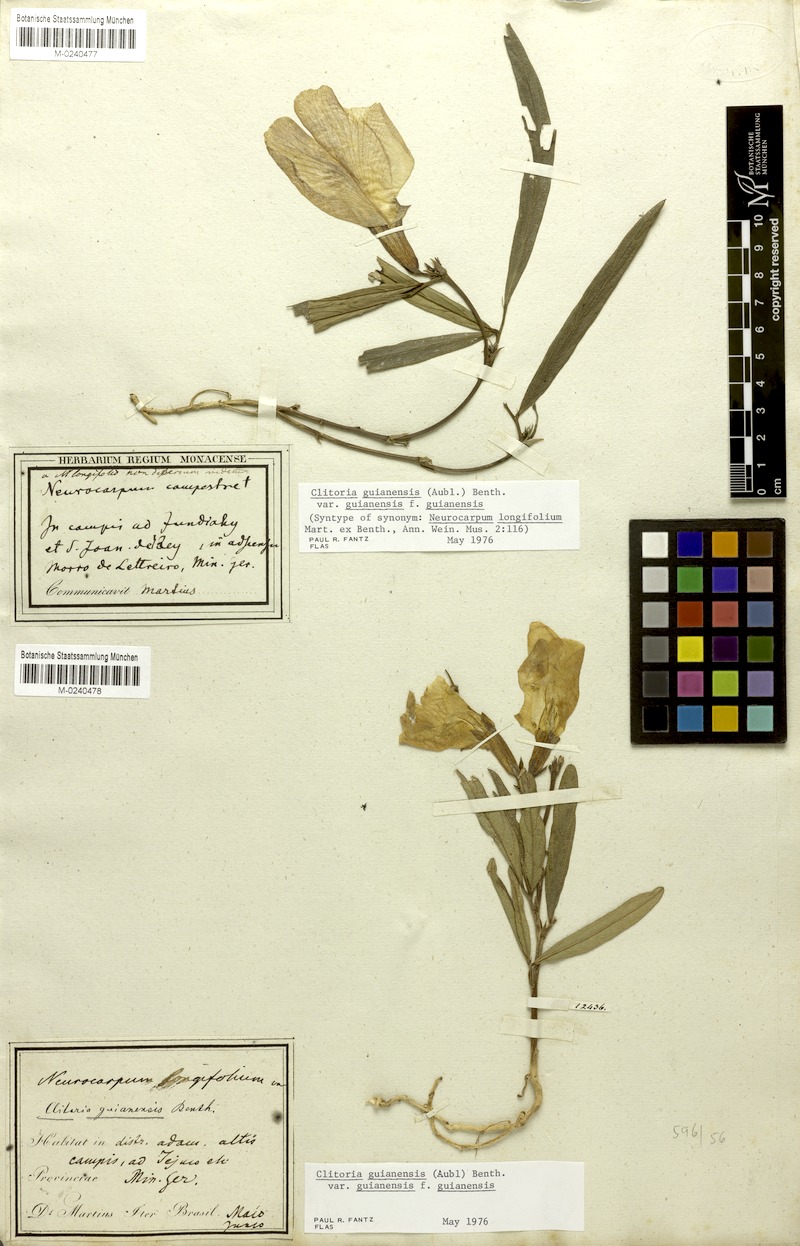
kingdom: Plantae
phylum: Tracheophyta
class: Magnoliopsida
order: Fabales
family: Fabaceae
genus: Clitoria
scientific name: Clitoria guianensis
